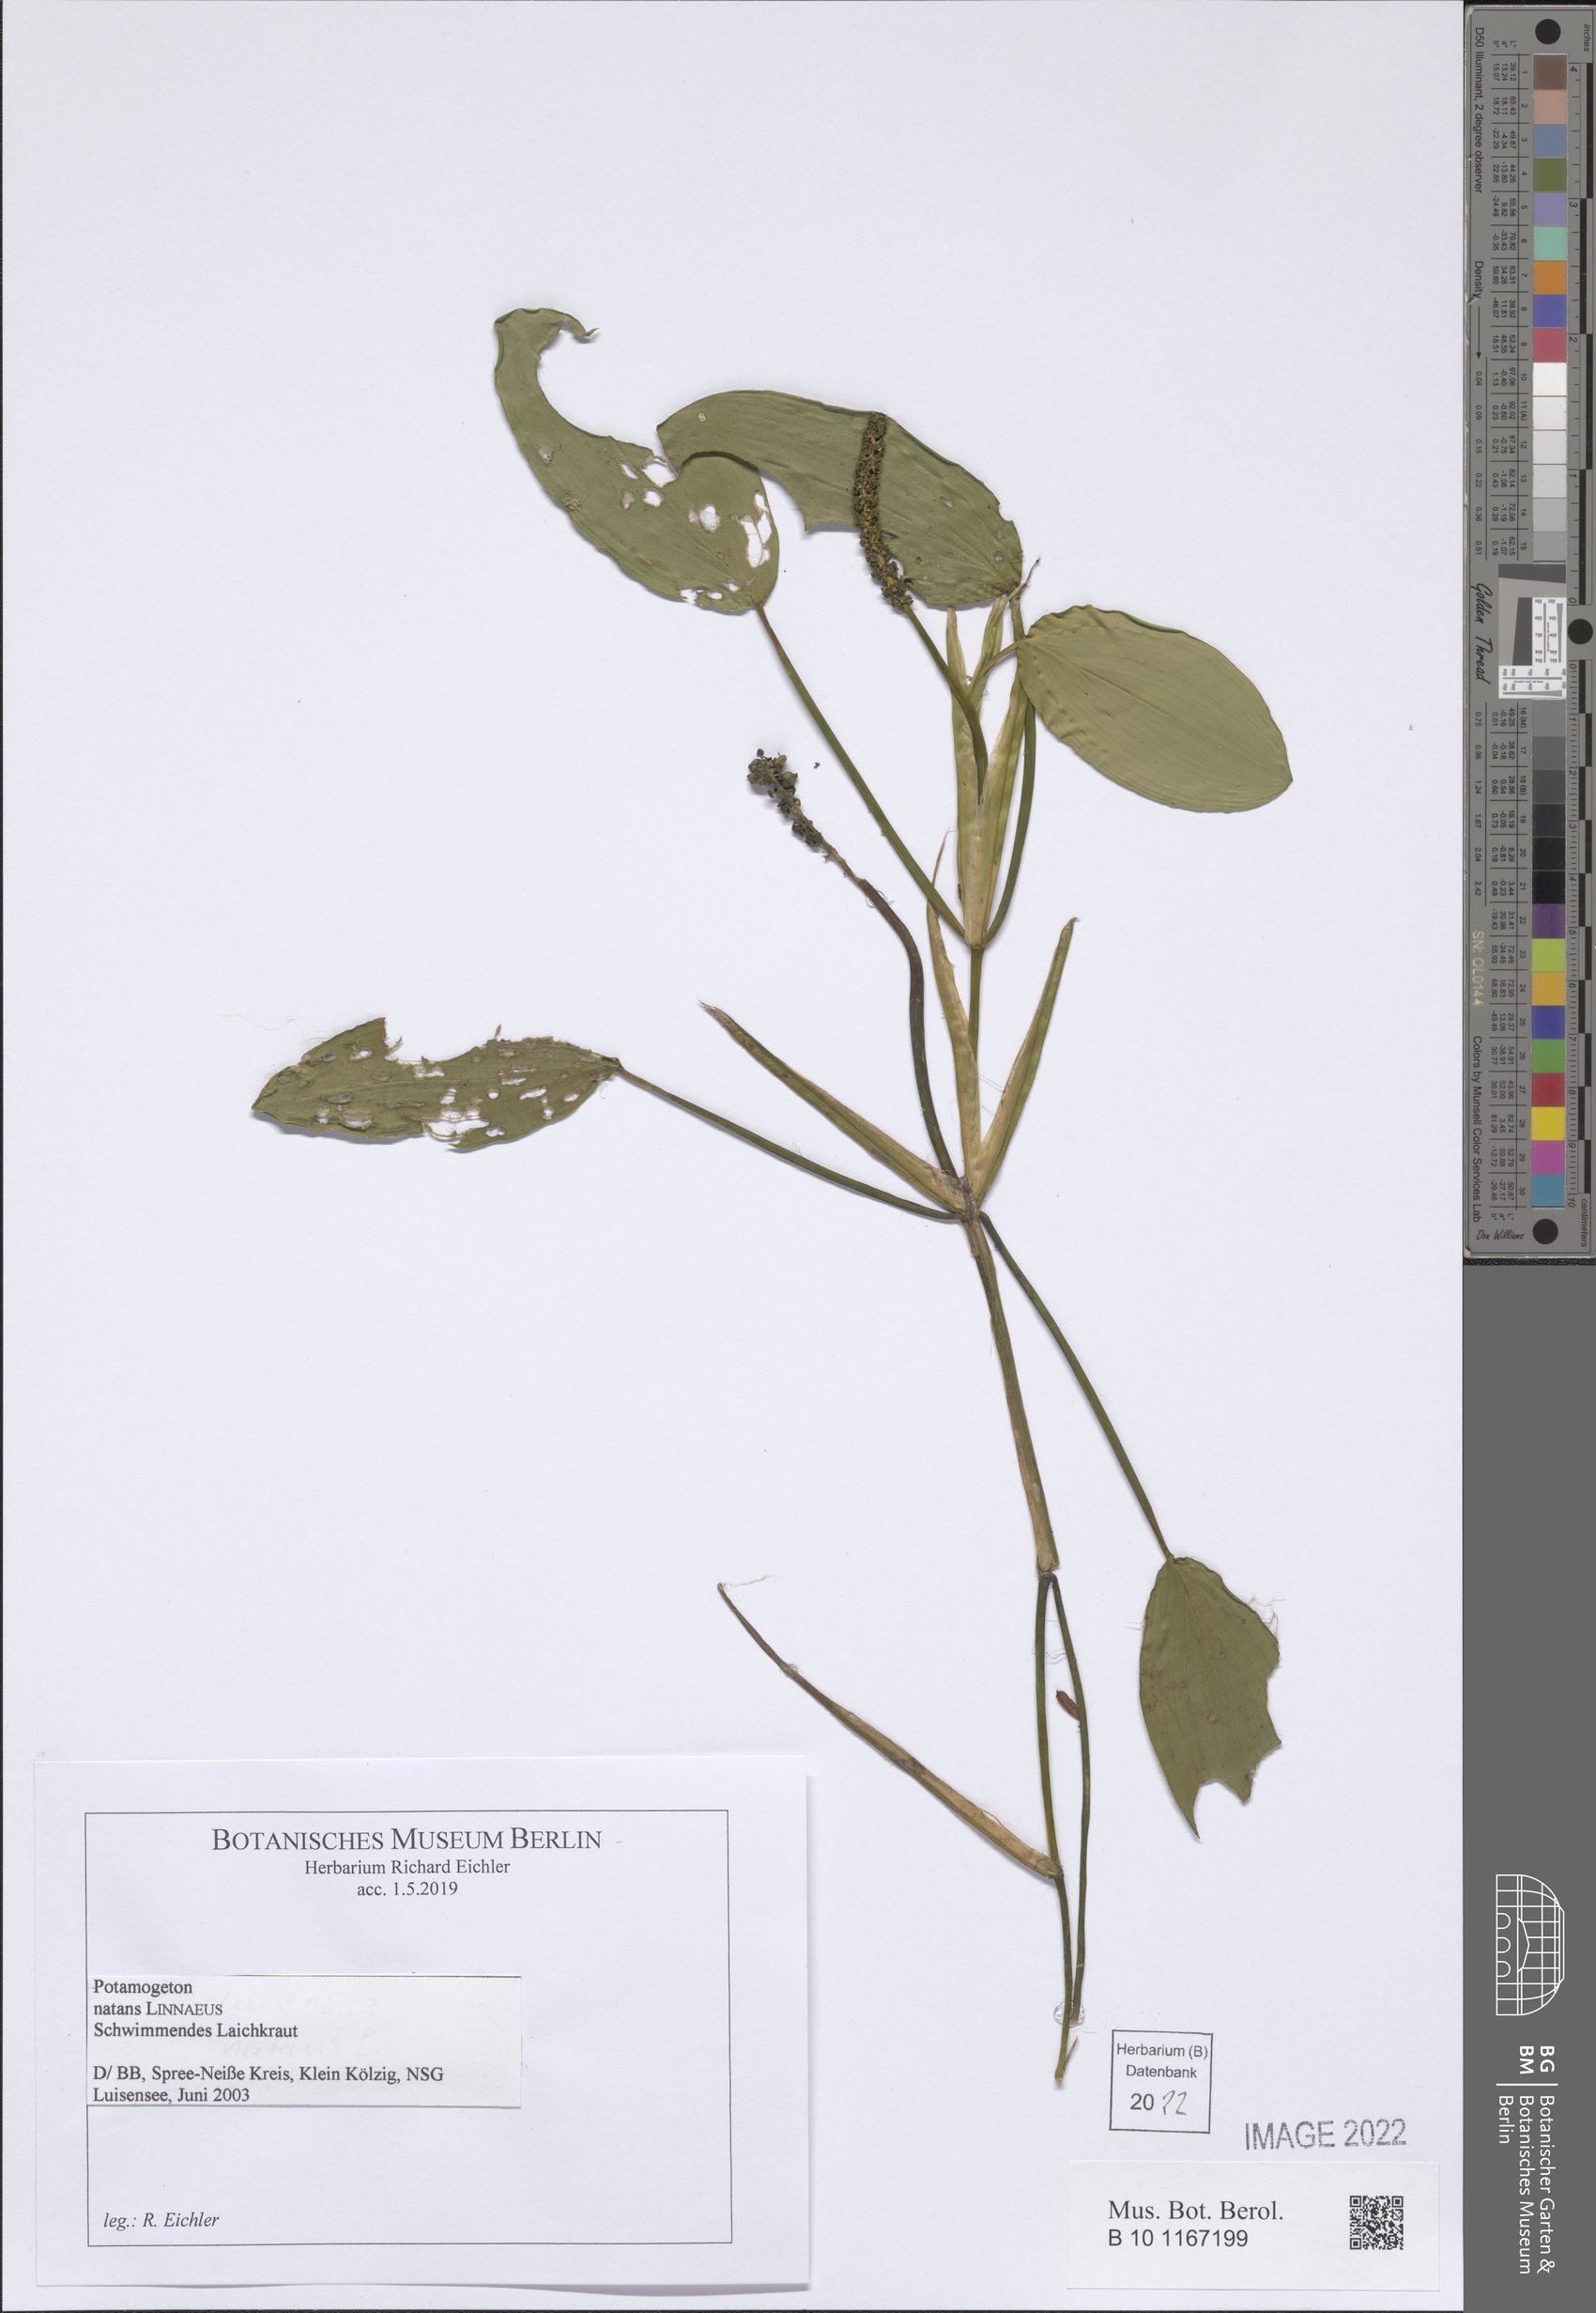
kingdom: Plantae
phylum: Tracheophyta
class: Liliopsida
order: Alismatales
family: Potamogetonaceae
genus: Potamogeton
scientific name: Potamogeton natans
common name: Broad-leaved pondweed
